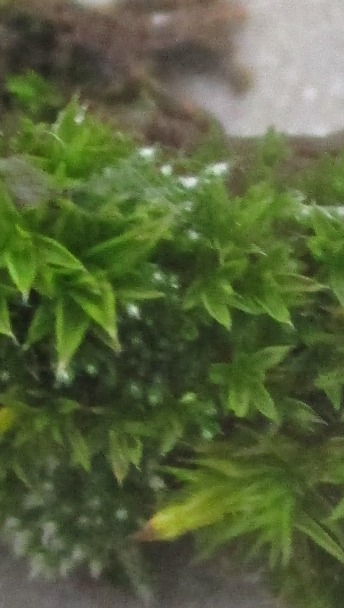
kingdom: Plantae
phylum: Bryophyta
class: Bryopsida
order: Orthotrichales
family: Orthotrichaceae
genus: Orthotrichum
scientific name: Orthotrichum diaphanum
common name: Hårspidset furehætte
